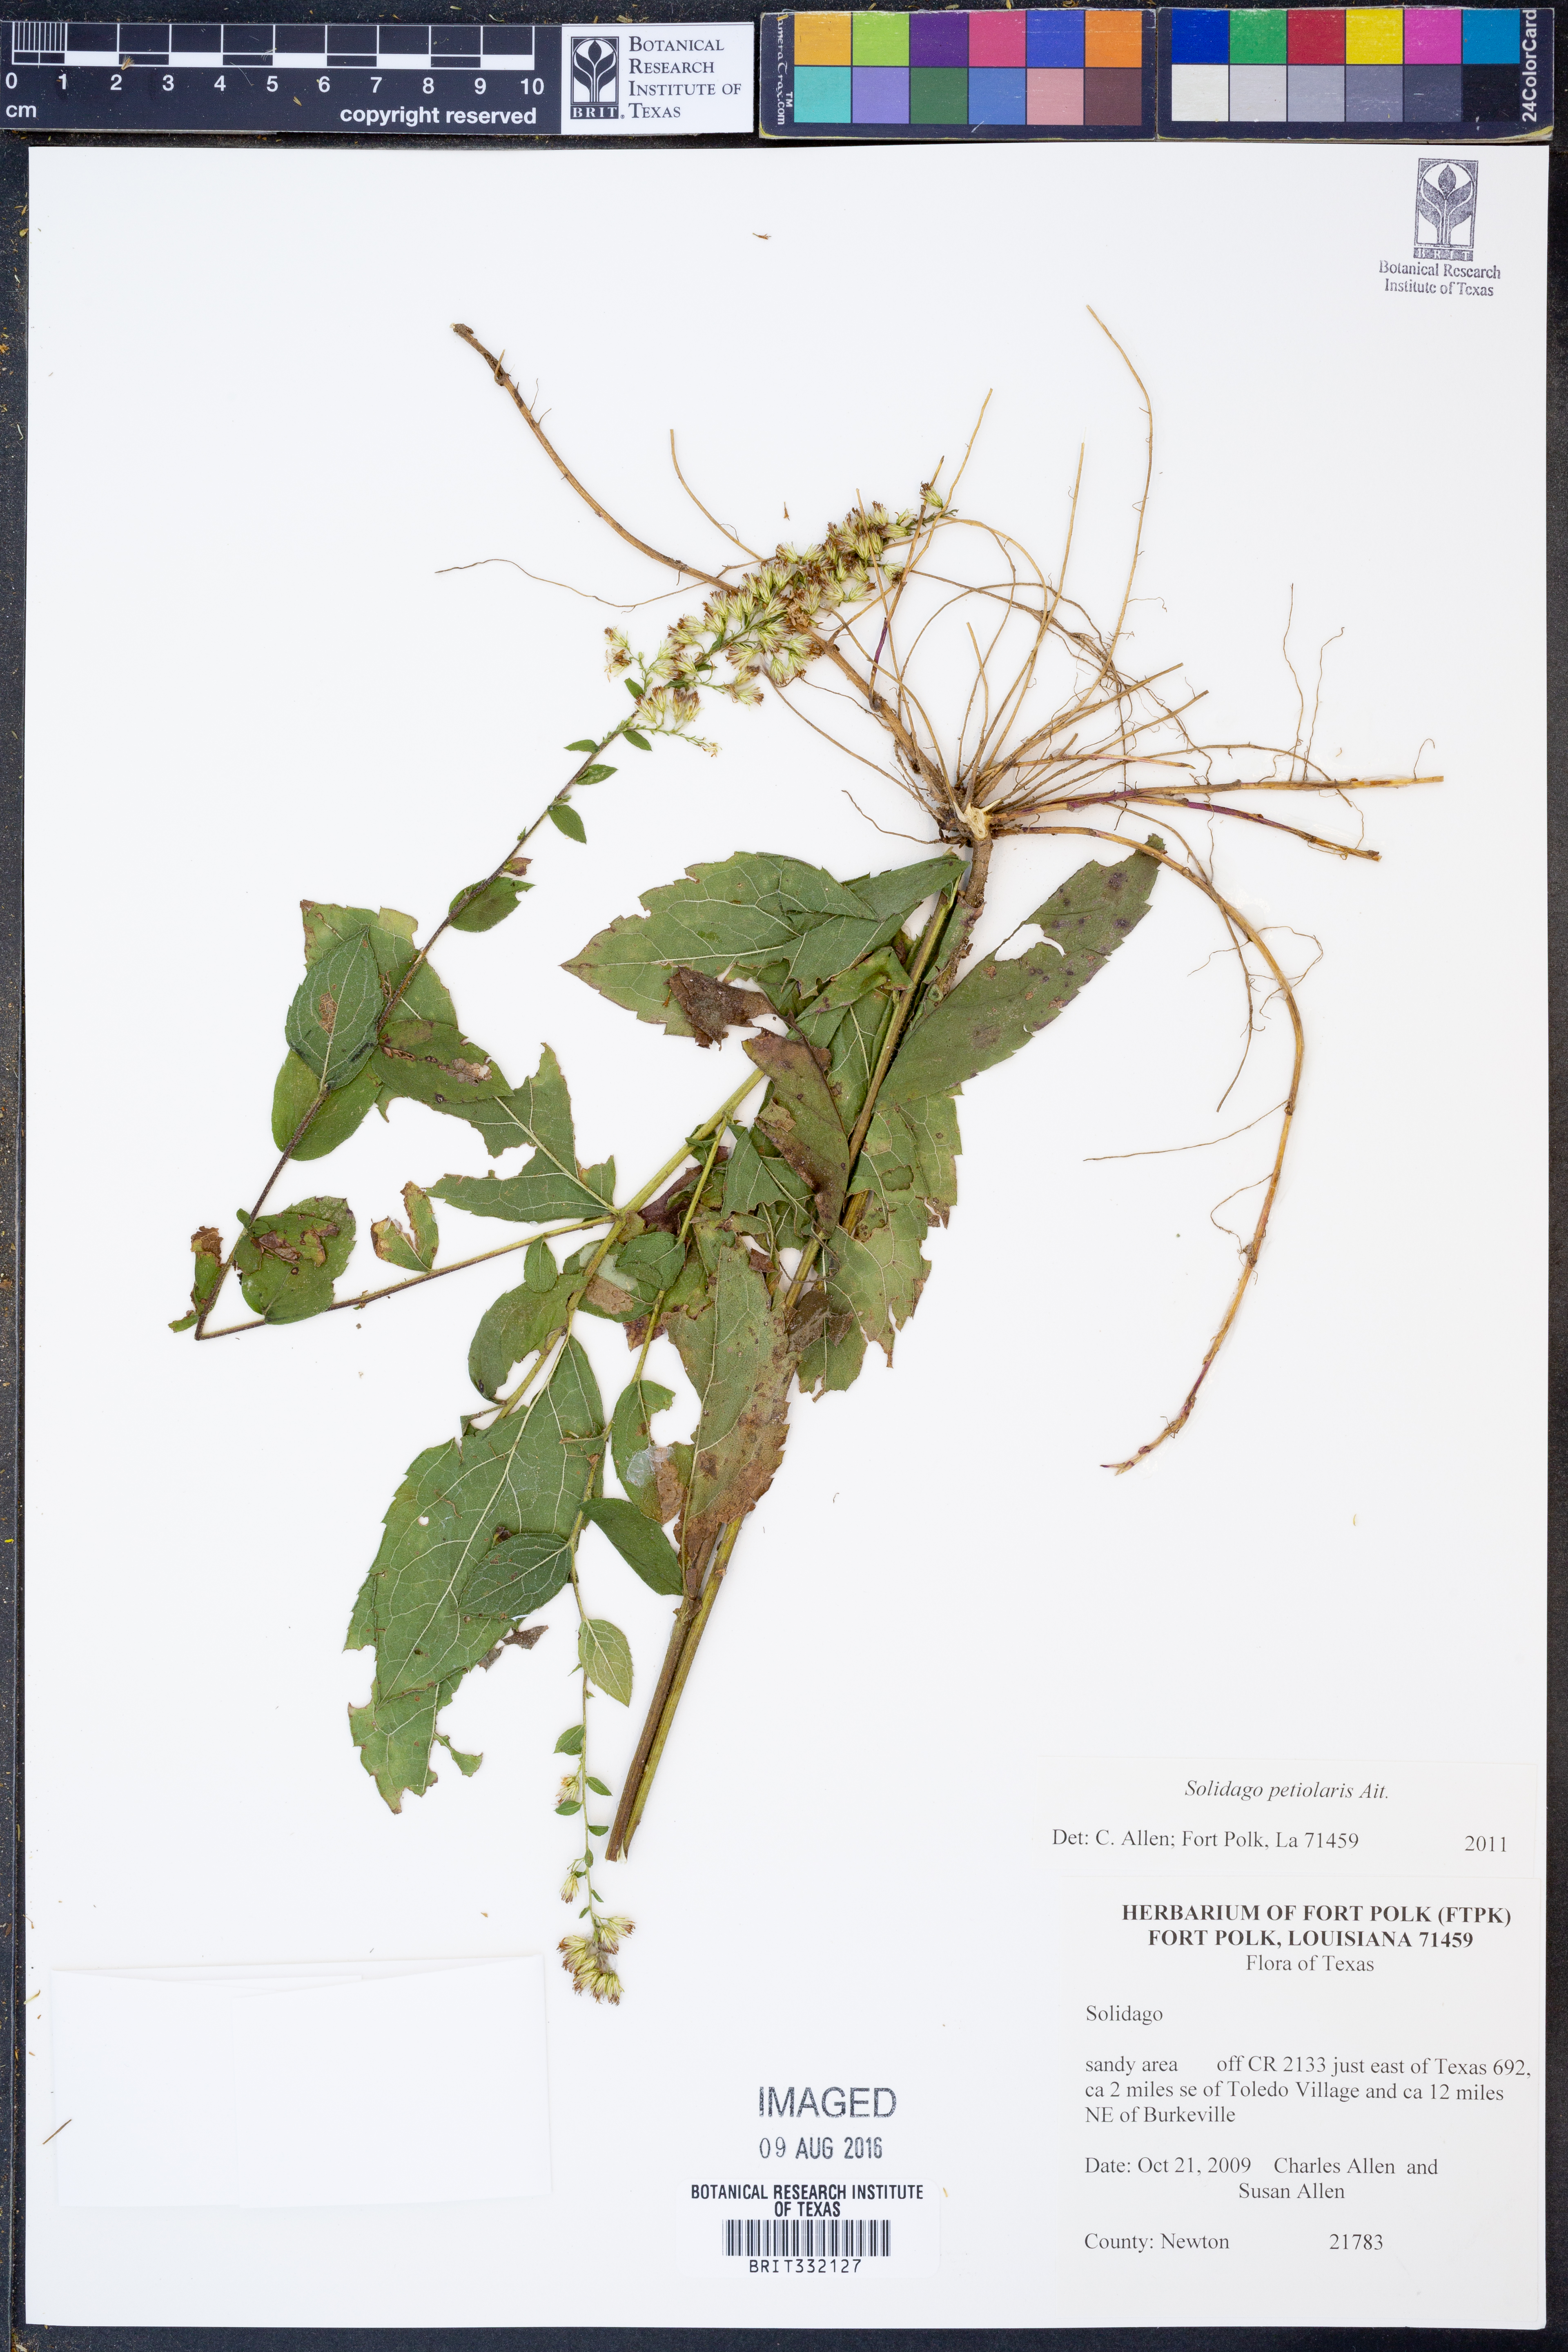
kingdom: Plantae
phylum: Tracheophyta
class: Magnoliopsida
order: Asterales
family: Asteraceae
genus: Solidago
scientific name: Solidago petiolaris
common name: Downy ragged goldenrod
